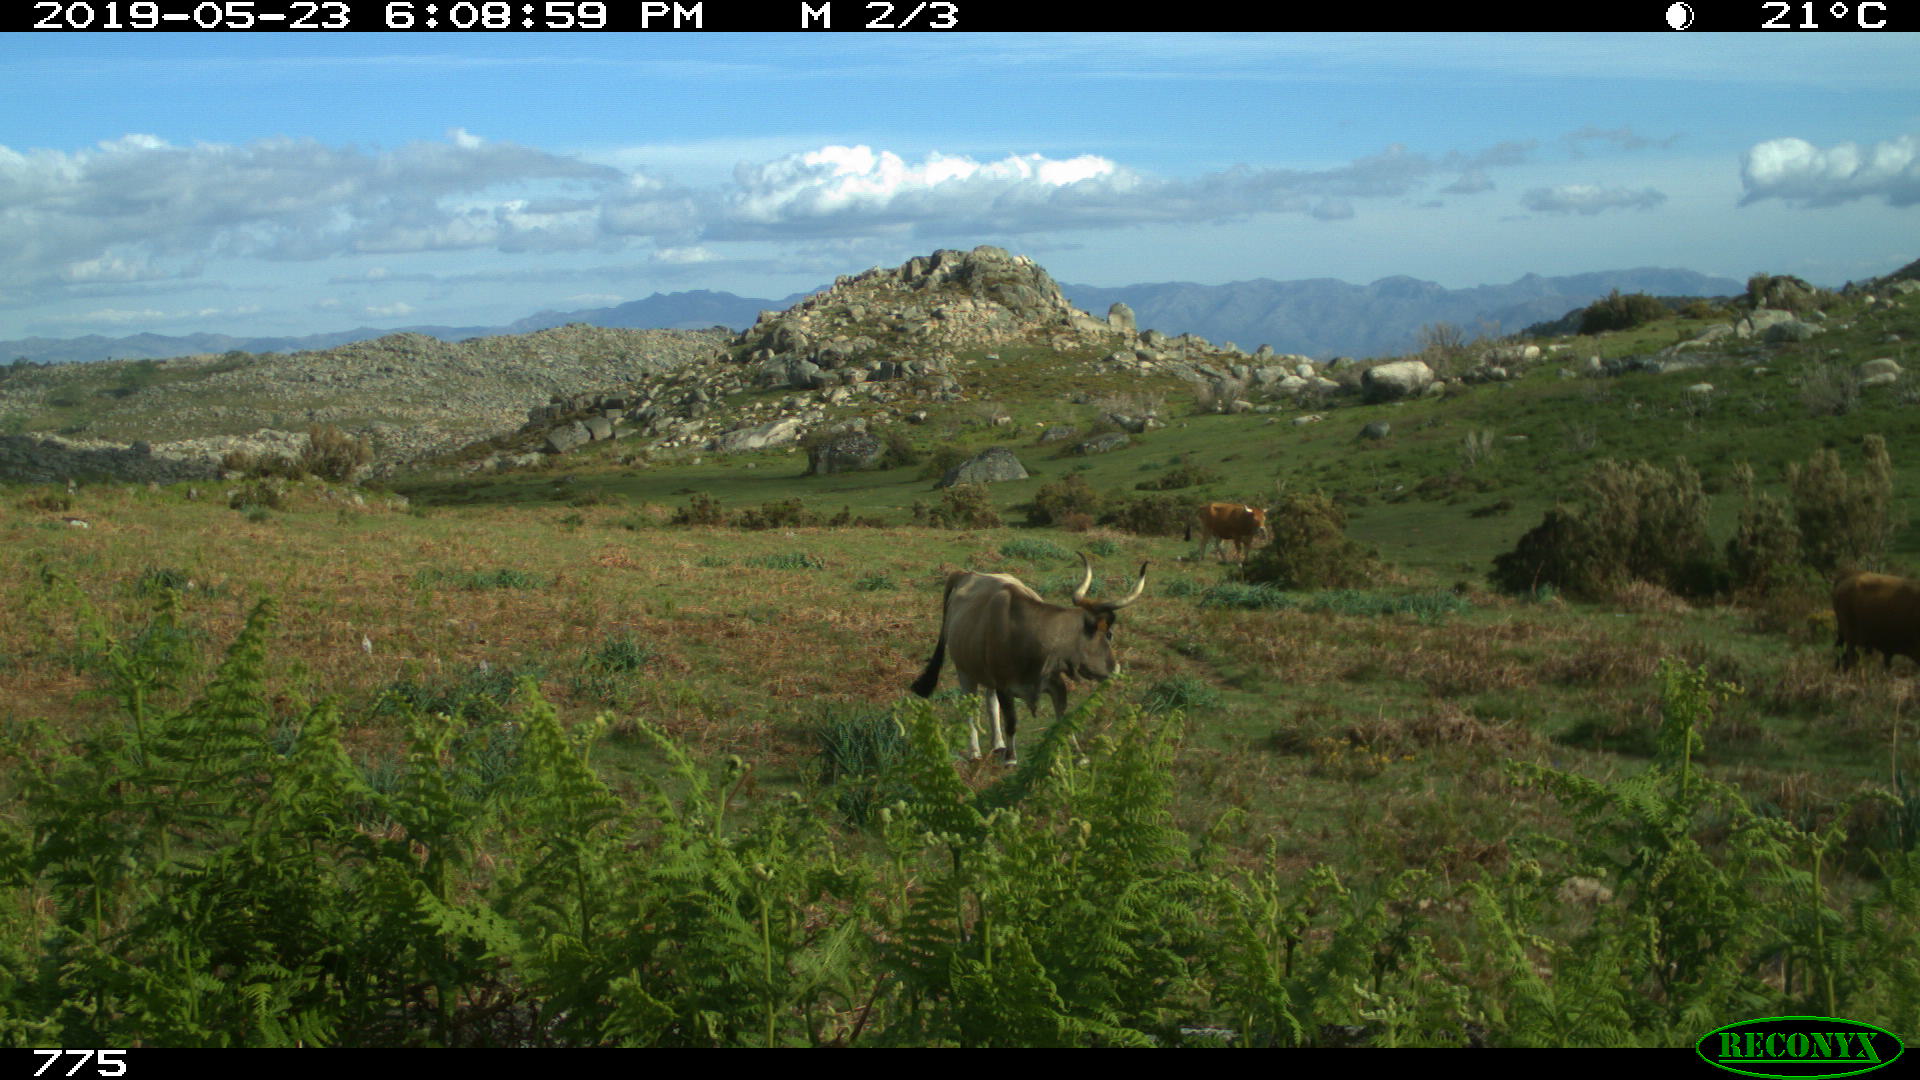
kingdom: Animalia
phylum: Chordata
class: Mammalia
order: Artiodactyla
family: Bovidae
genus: Bos
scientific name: Bos taurus
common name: Domesticated cattle
